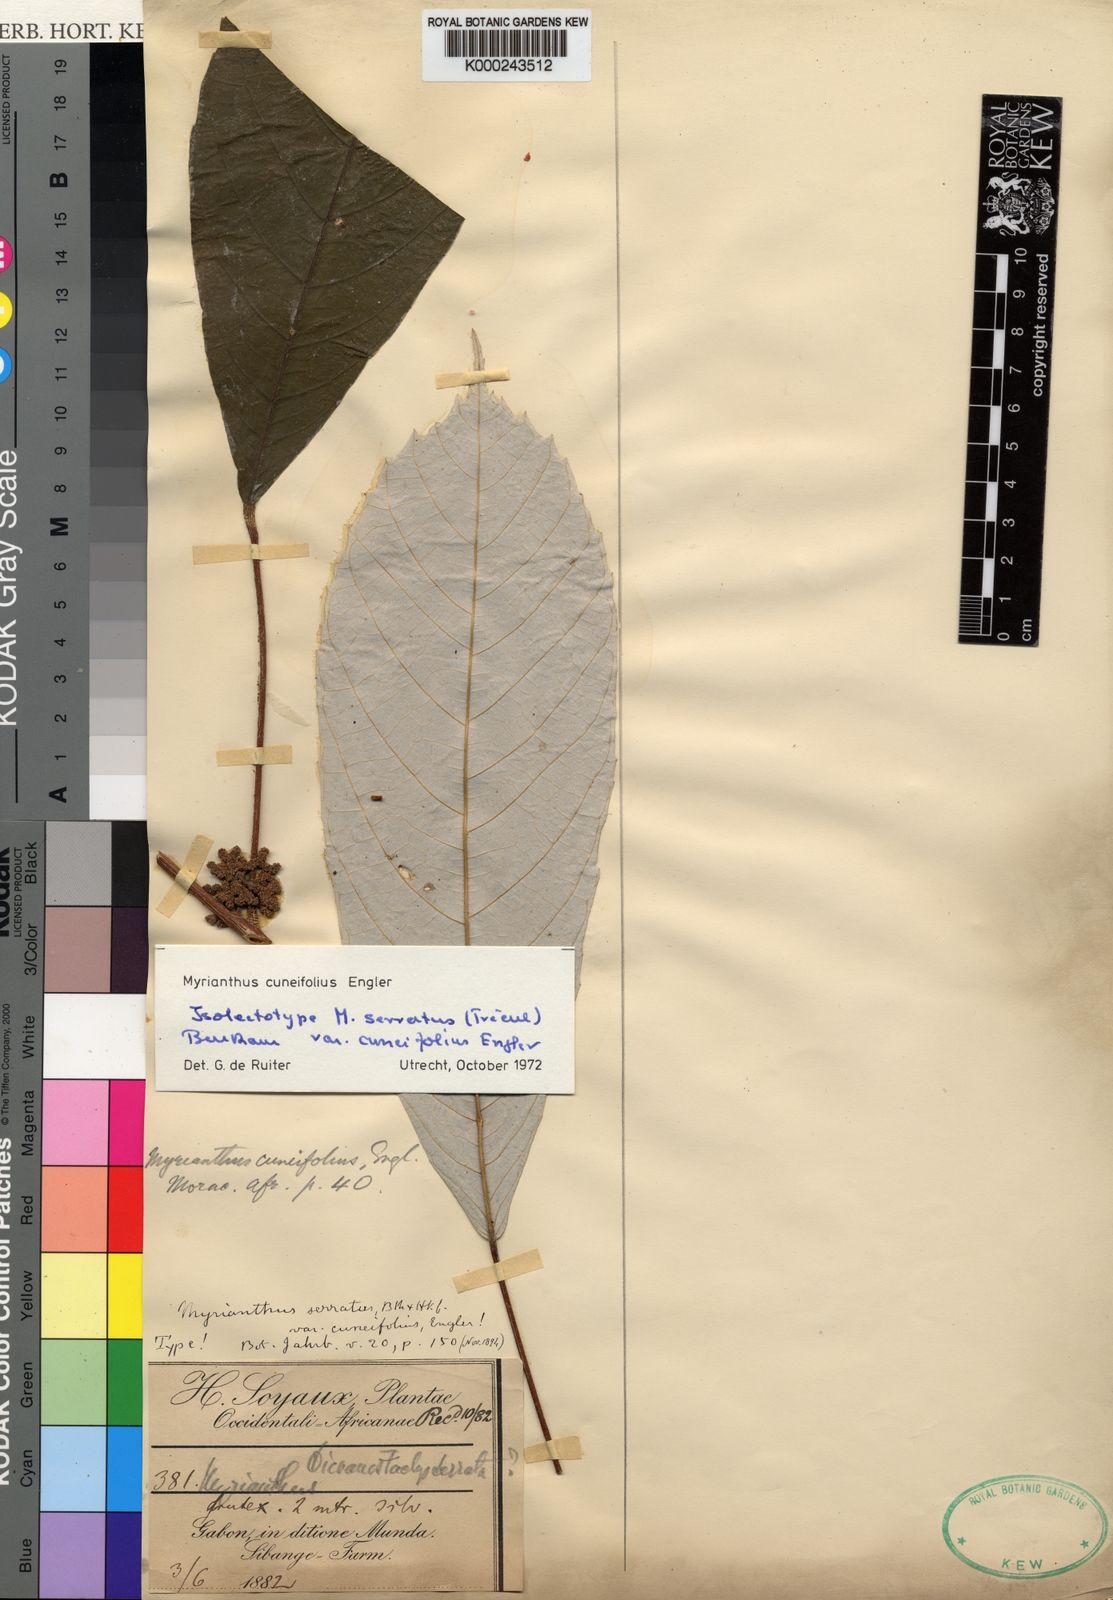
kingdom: Plantae
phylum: Tracheophyta
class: Magnoliopsida
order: Rosales
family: Urticaceae
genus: Myrianthus
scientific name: Myrianthus cuneifolius
